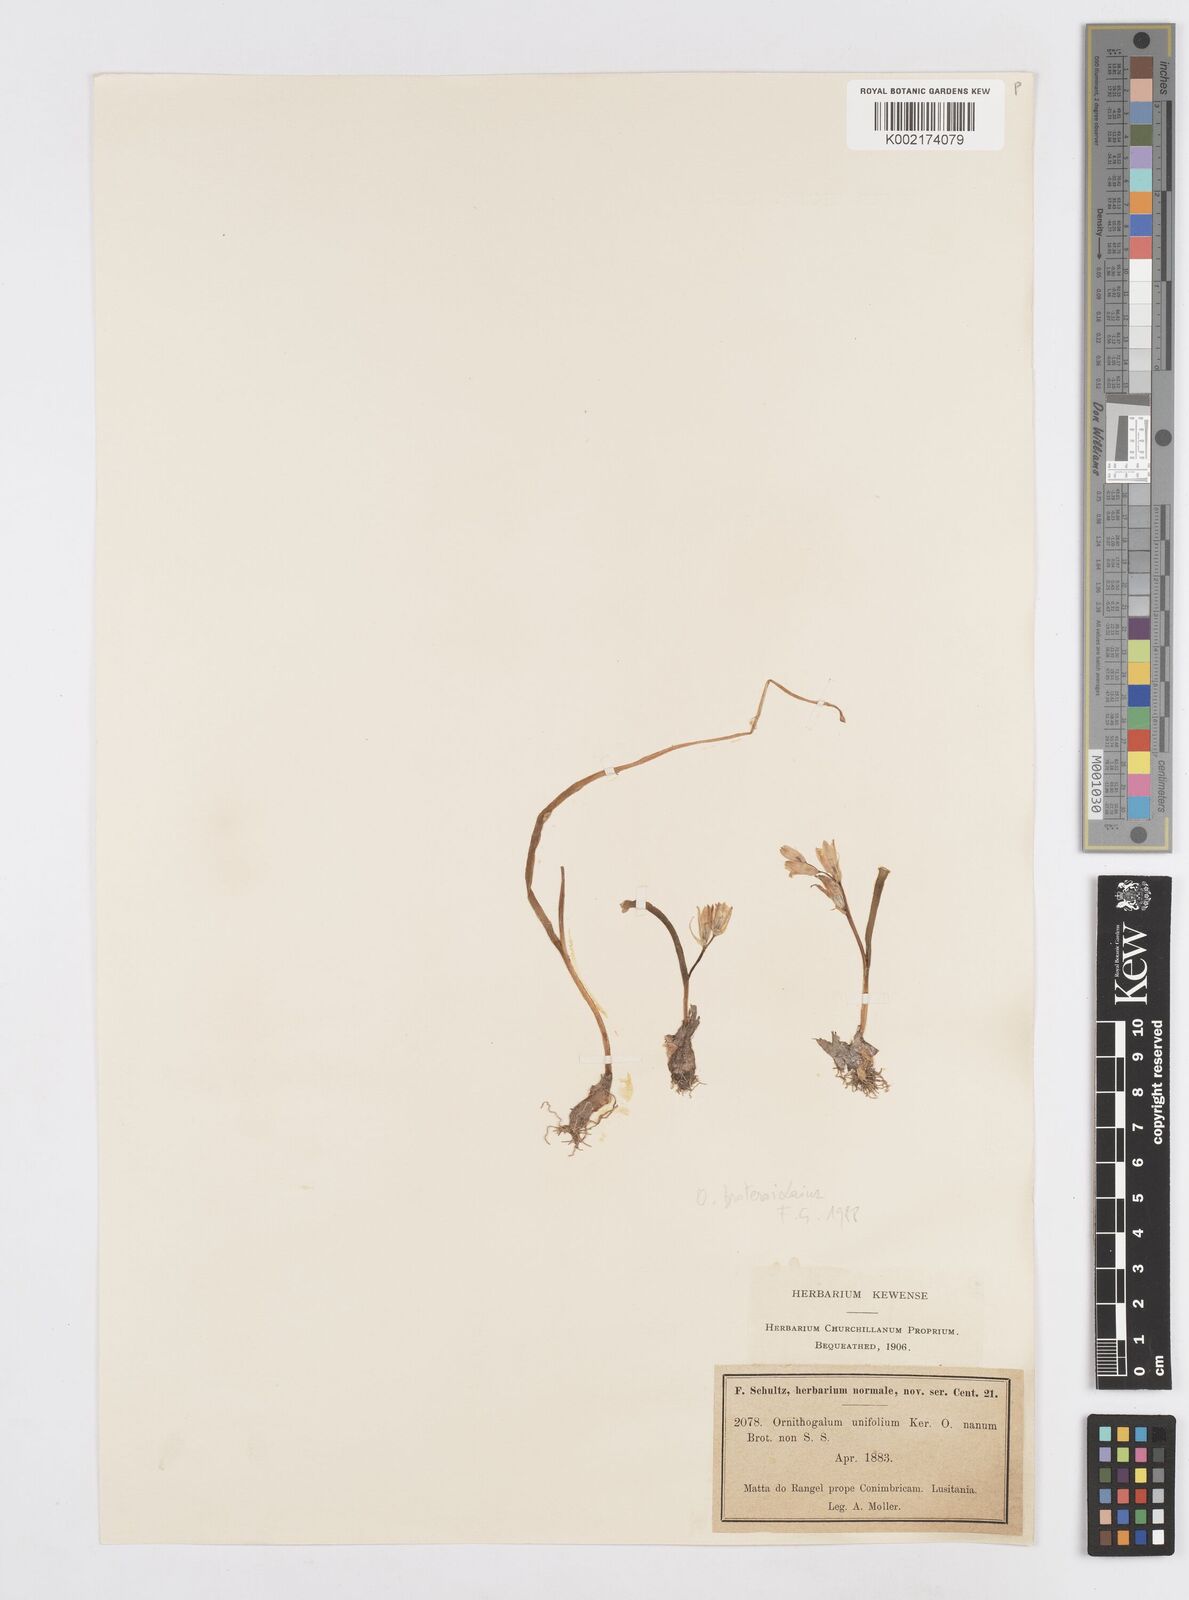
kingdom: Plantae
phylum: Tracheophyta
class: Liliopsida
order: Asparagales
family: Asparagaceae
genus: Ornithogalum
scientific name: Ornithogalum broteroi
